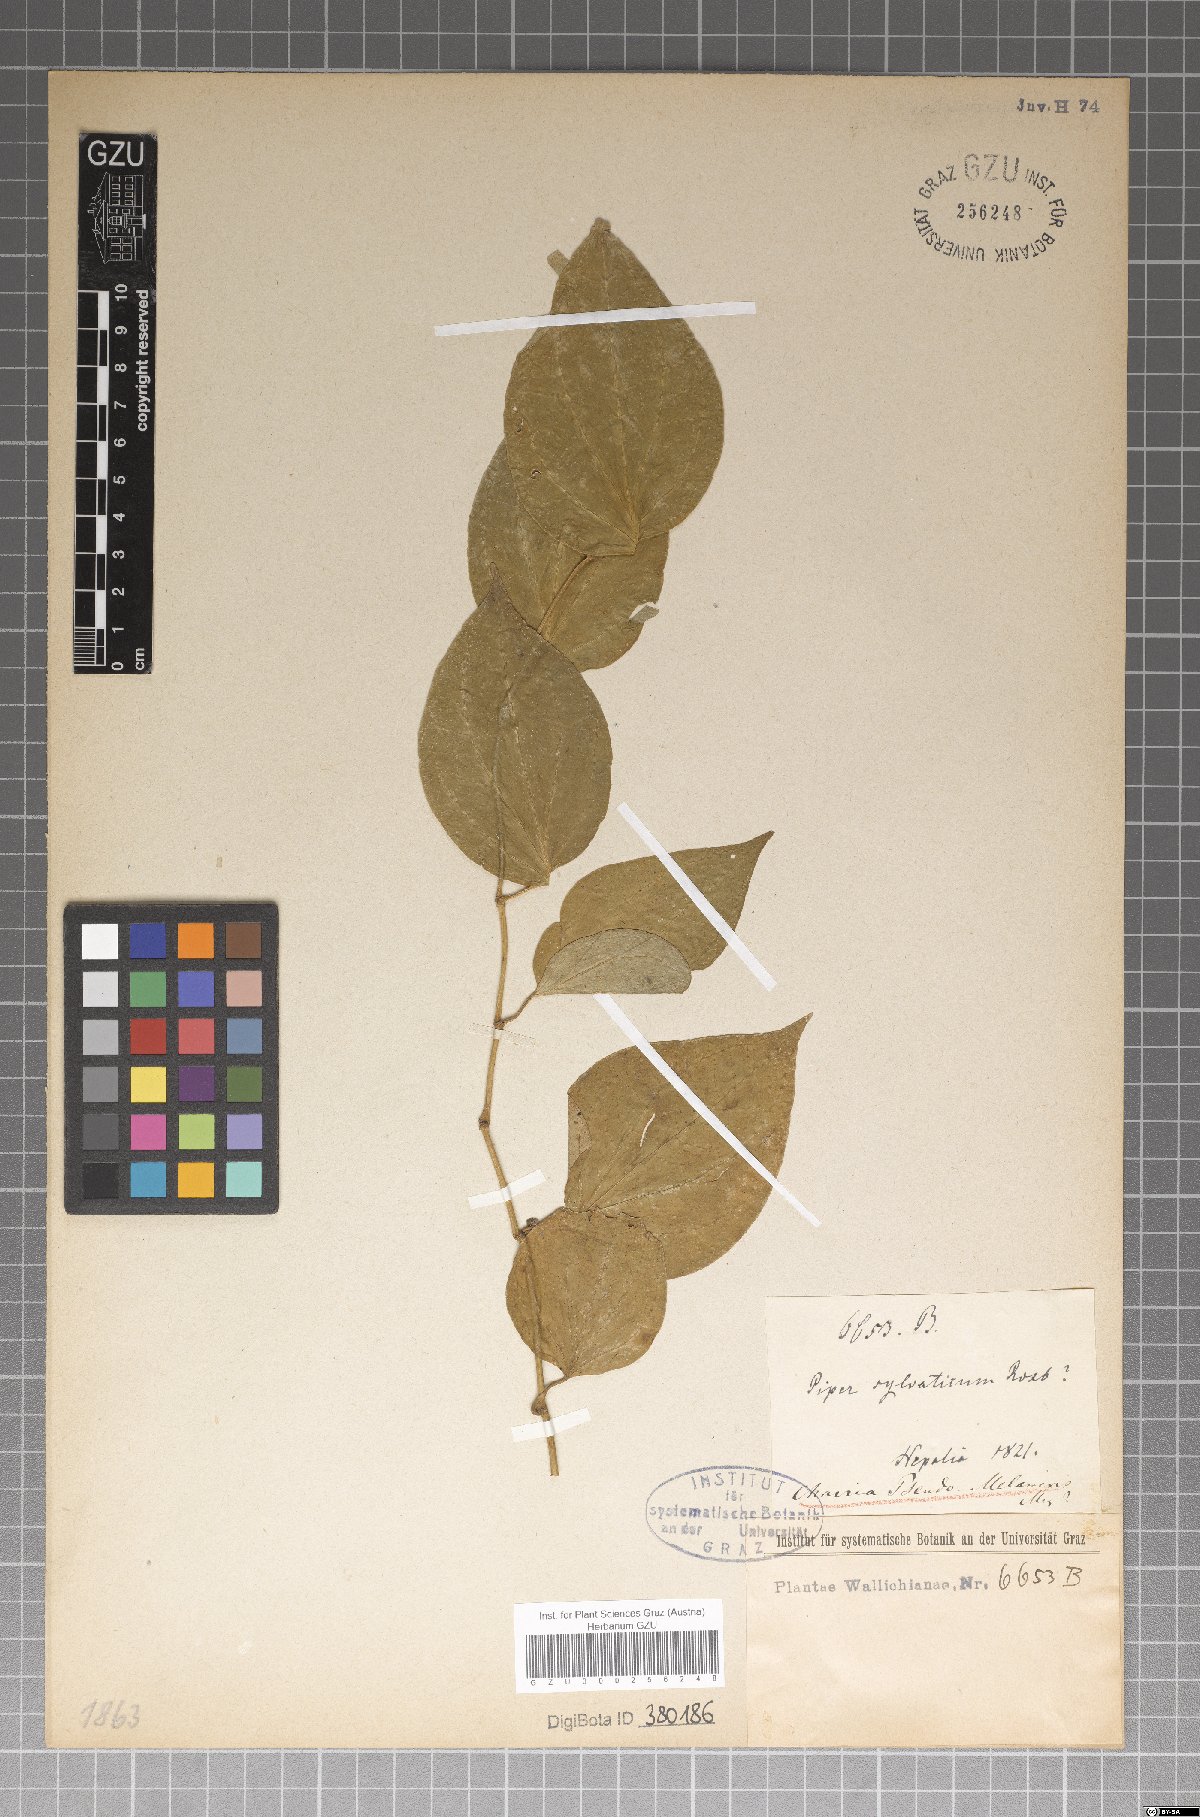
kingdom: Plantae
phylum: Tracheophyta
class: Magnoliopsida
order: Piperales
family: Piperaceae
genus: Piper
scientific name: Piper sylvaticum
